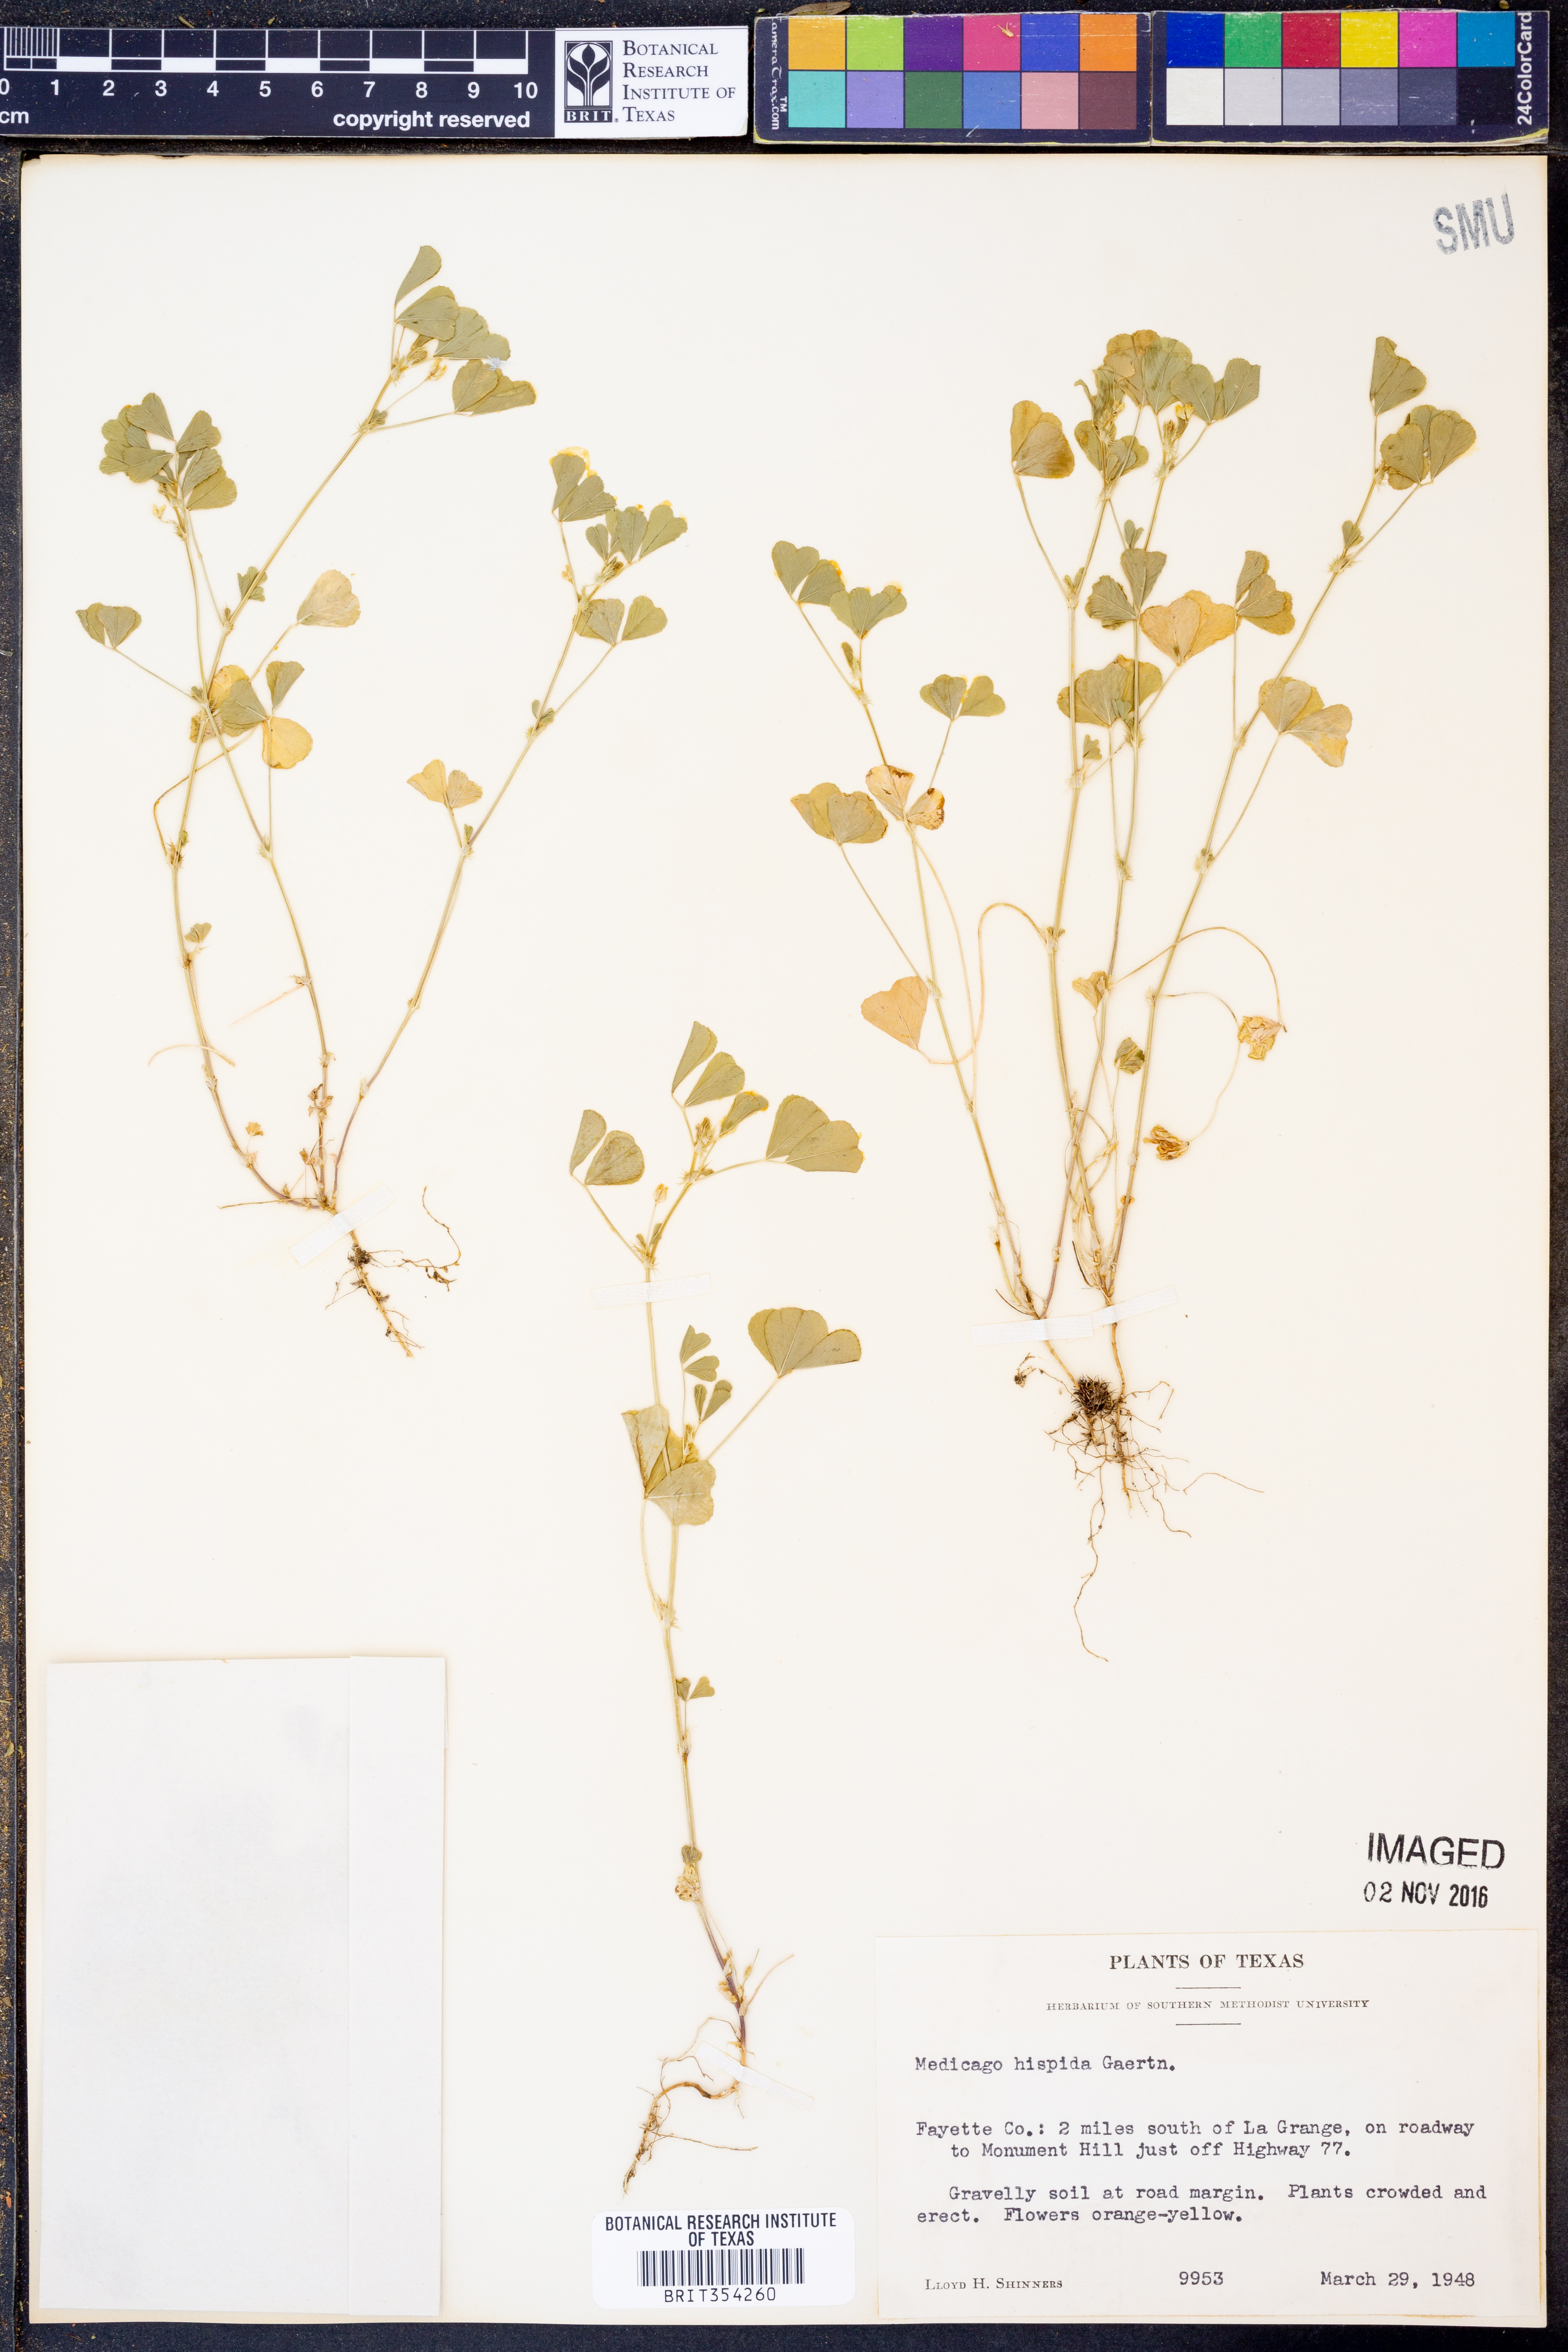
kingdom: Plantae
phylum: Tracheophyta
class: Magnoliopsida
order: Fabales
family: Fabaceae
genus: Medicago
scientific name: Medicago polymorpha
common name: Burclover
